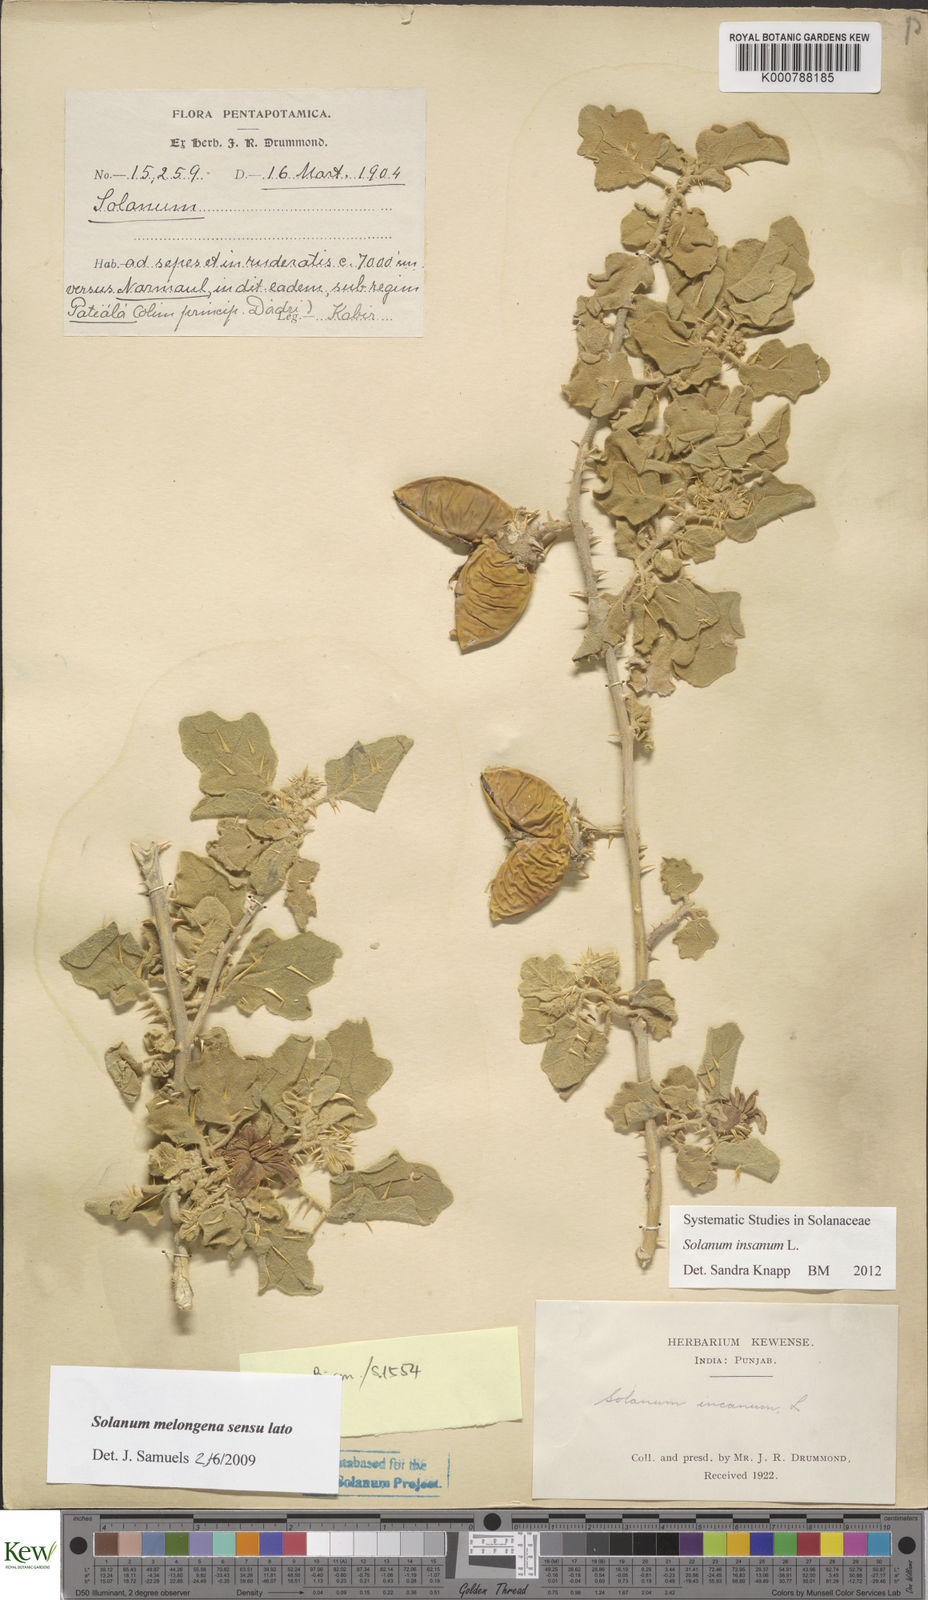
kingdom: Plantae
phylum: Tracheophyta
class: Magnoliopsida
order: Solanales
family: Solanaceae
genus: Solanum
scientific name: Solanum insanum
